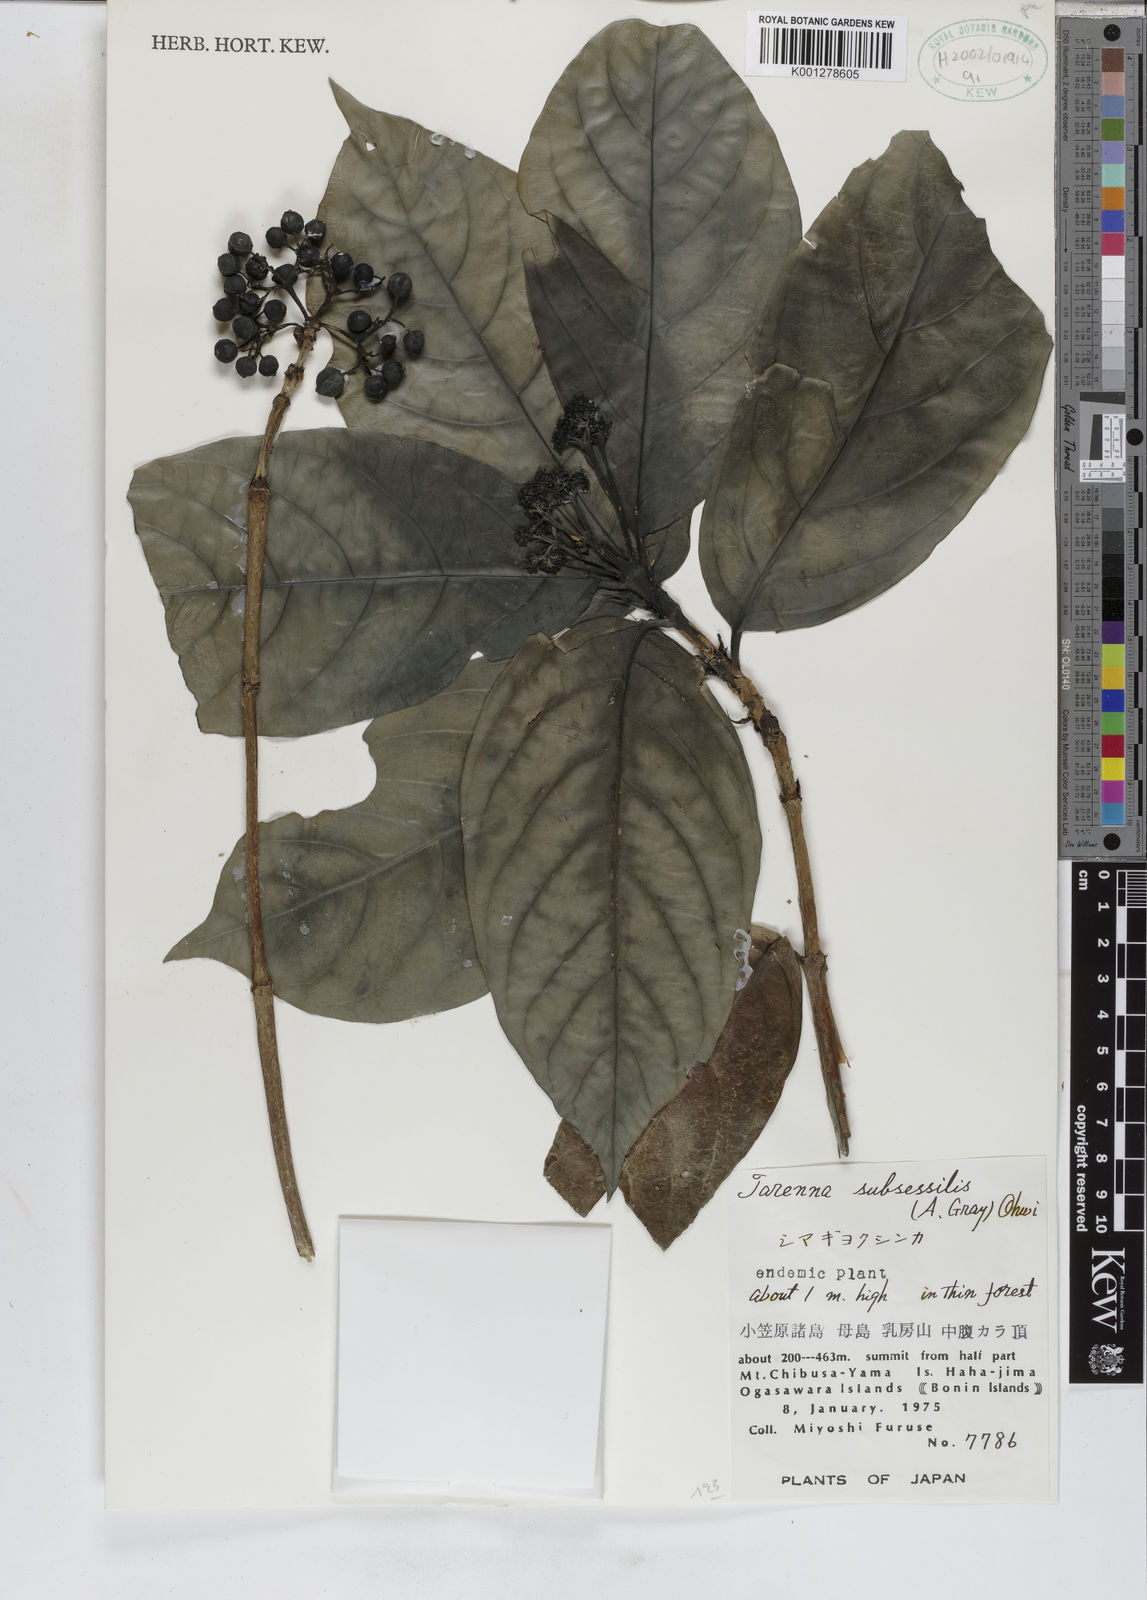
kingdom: Plantae
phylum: Tracheophyta
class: Magnoliopsida
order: Gentianales
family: Rubiaceae
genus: Tarenna
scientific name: Tarenna subsessilis
